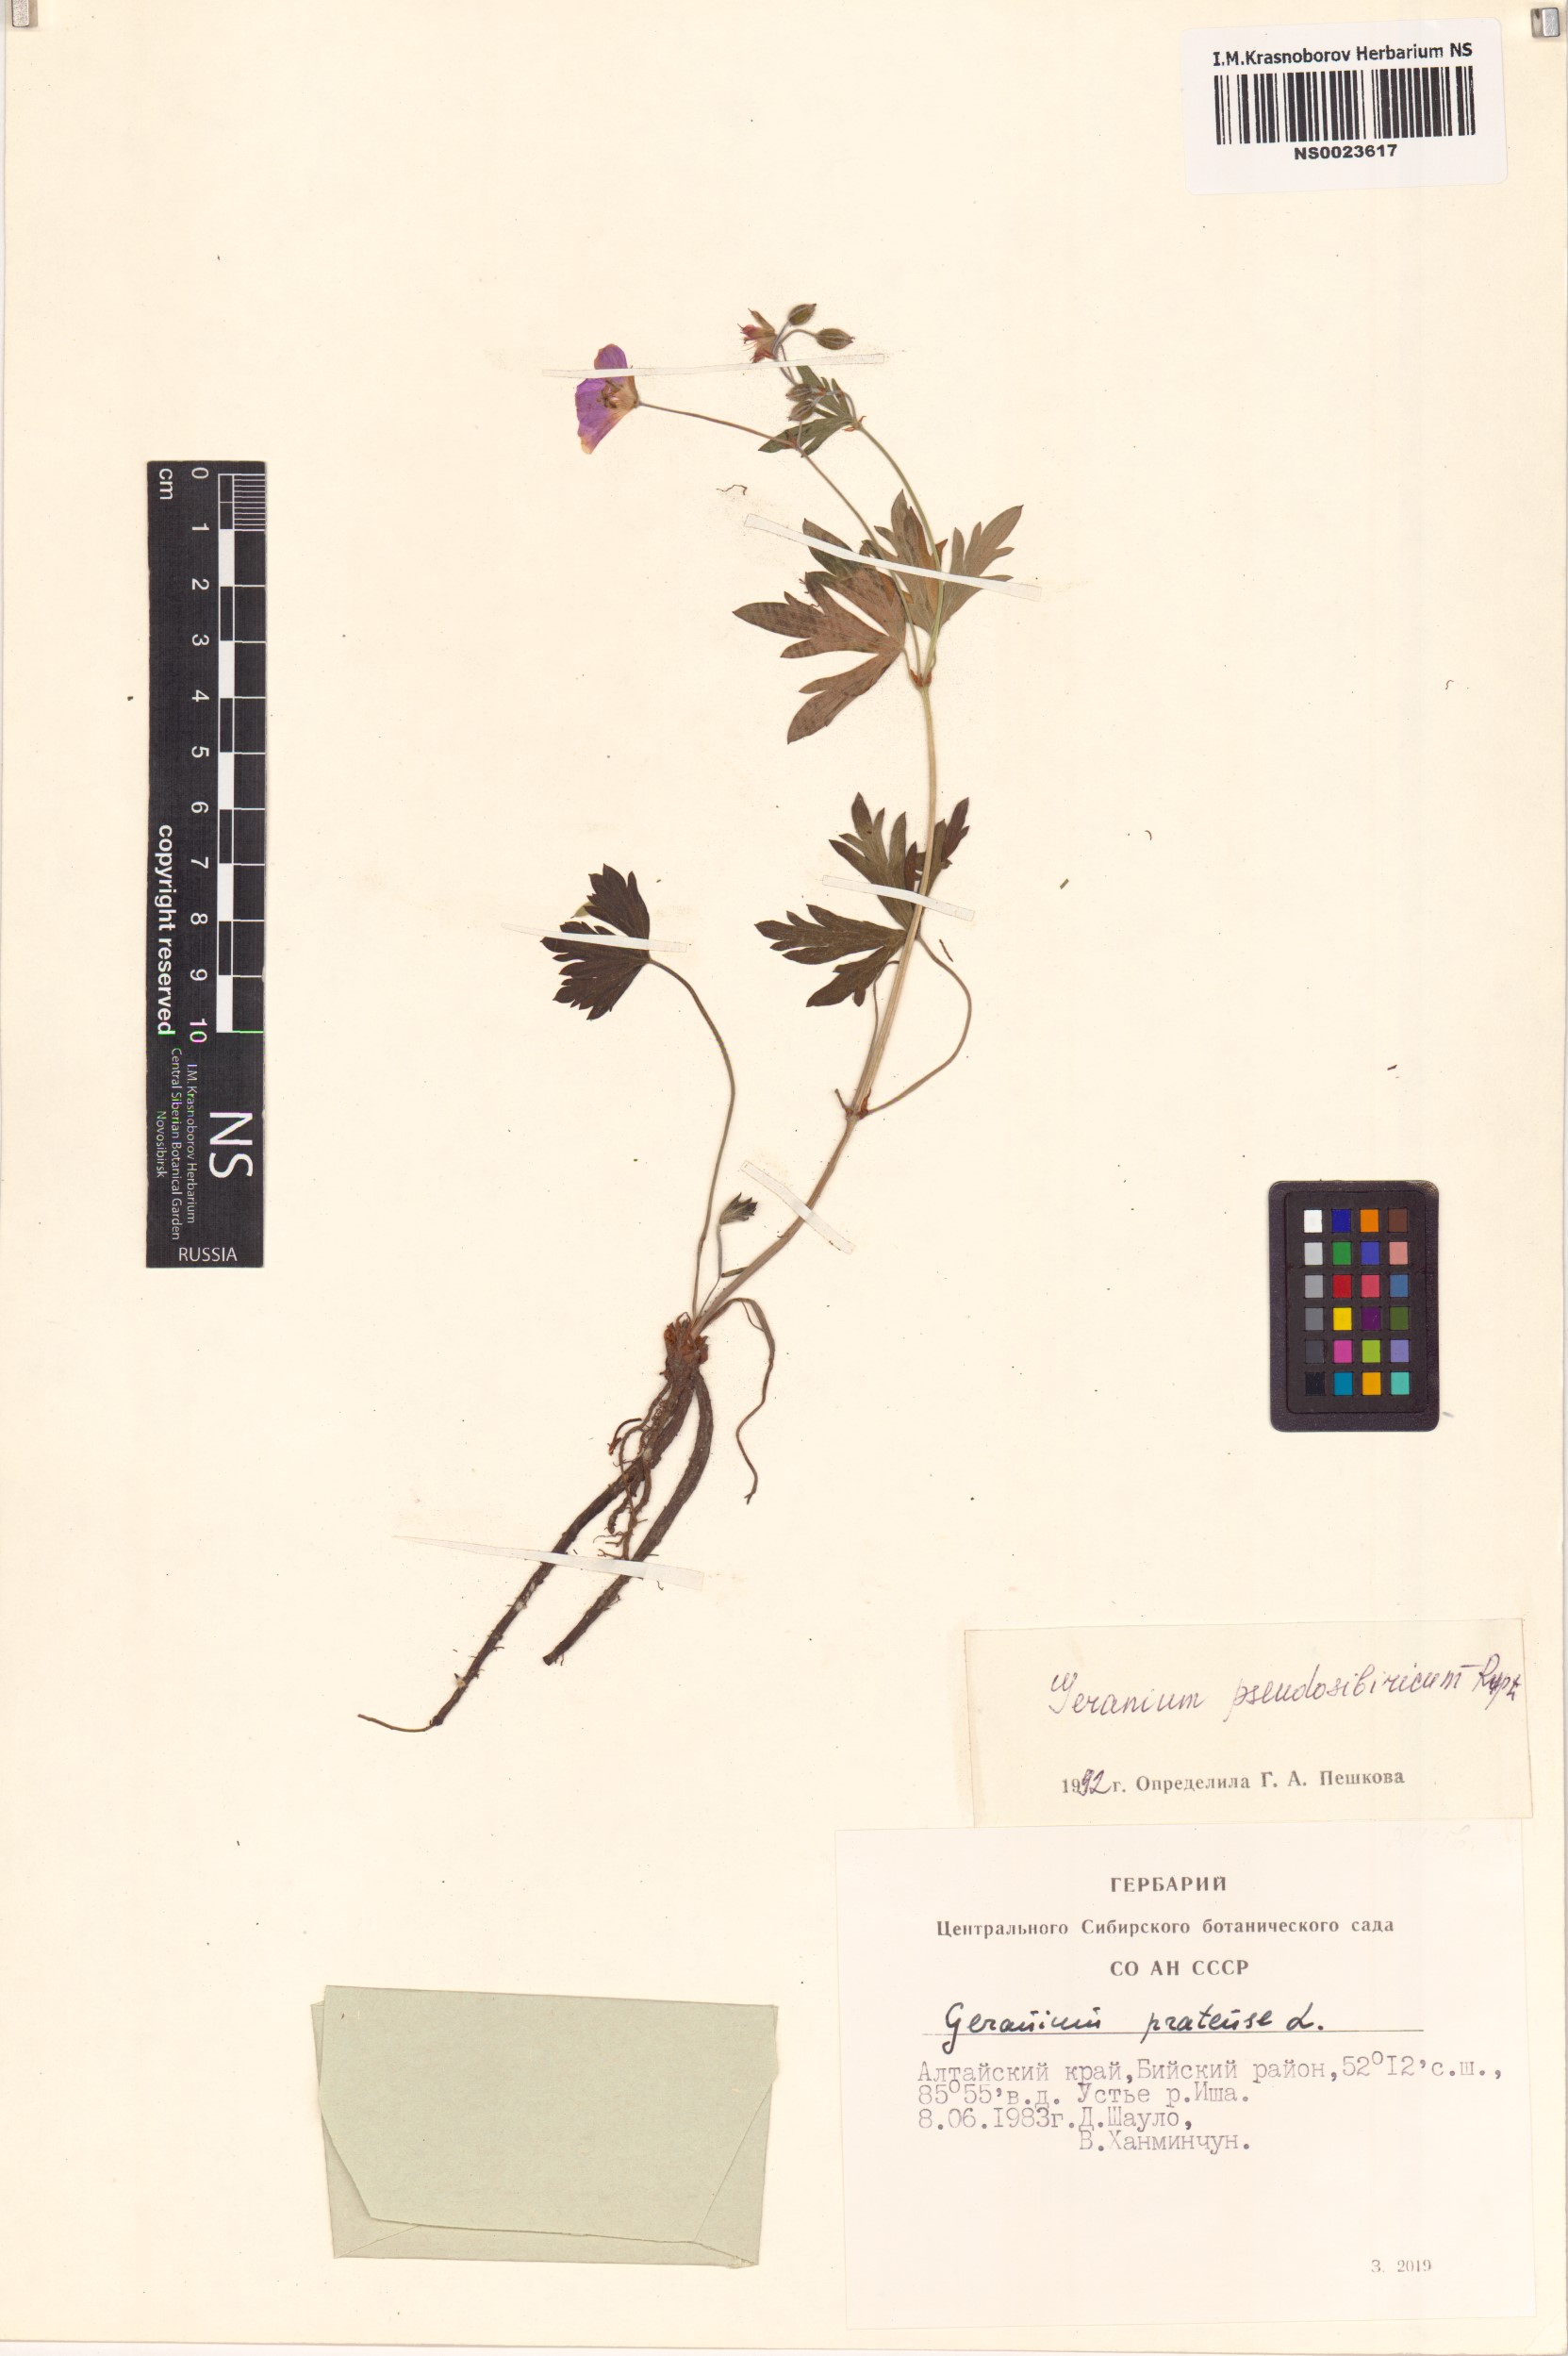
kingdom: Plantae
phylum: Tracheophyta
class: Magnoliopsida
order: Geraniales
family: Geraniaceae
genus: Geranium
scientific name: Geranium pseudosibiricum
